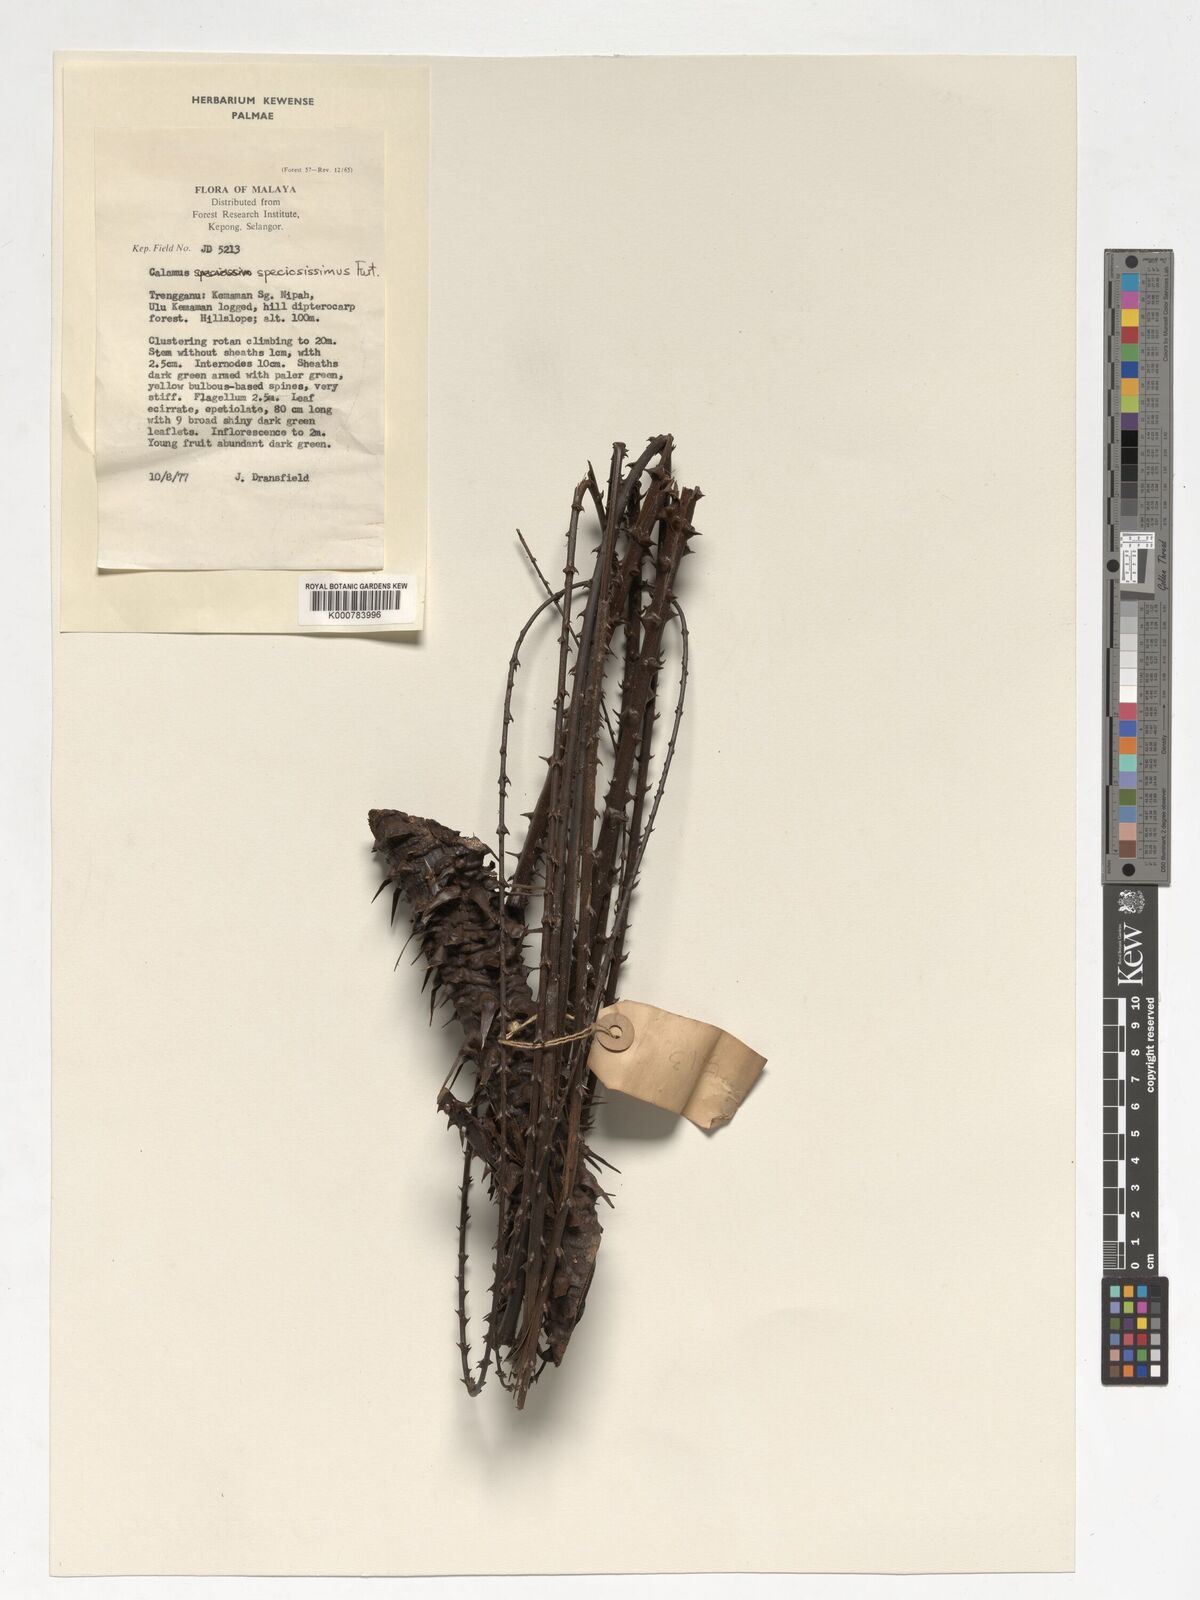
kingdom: Plantae
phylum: Tracheophyta
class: Liliopsida
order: Arecales
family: Arecaceae
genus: Calamus
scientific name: Calamus micranthus
